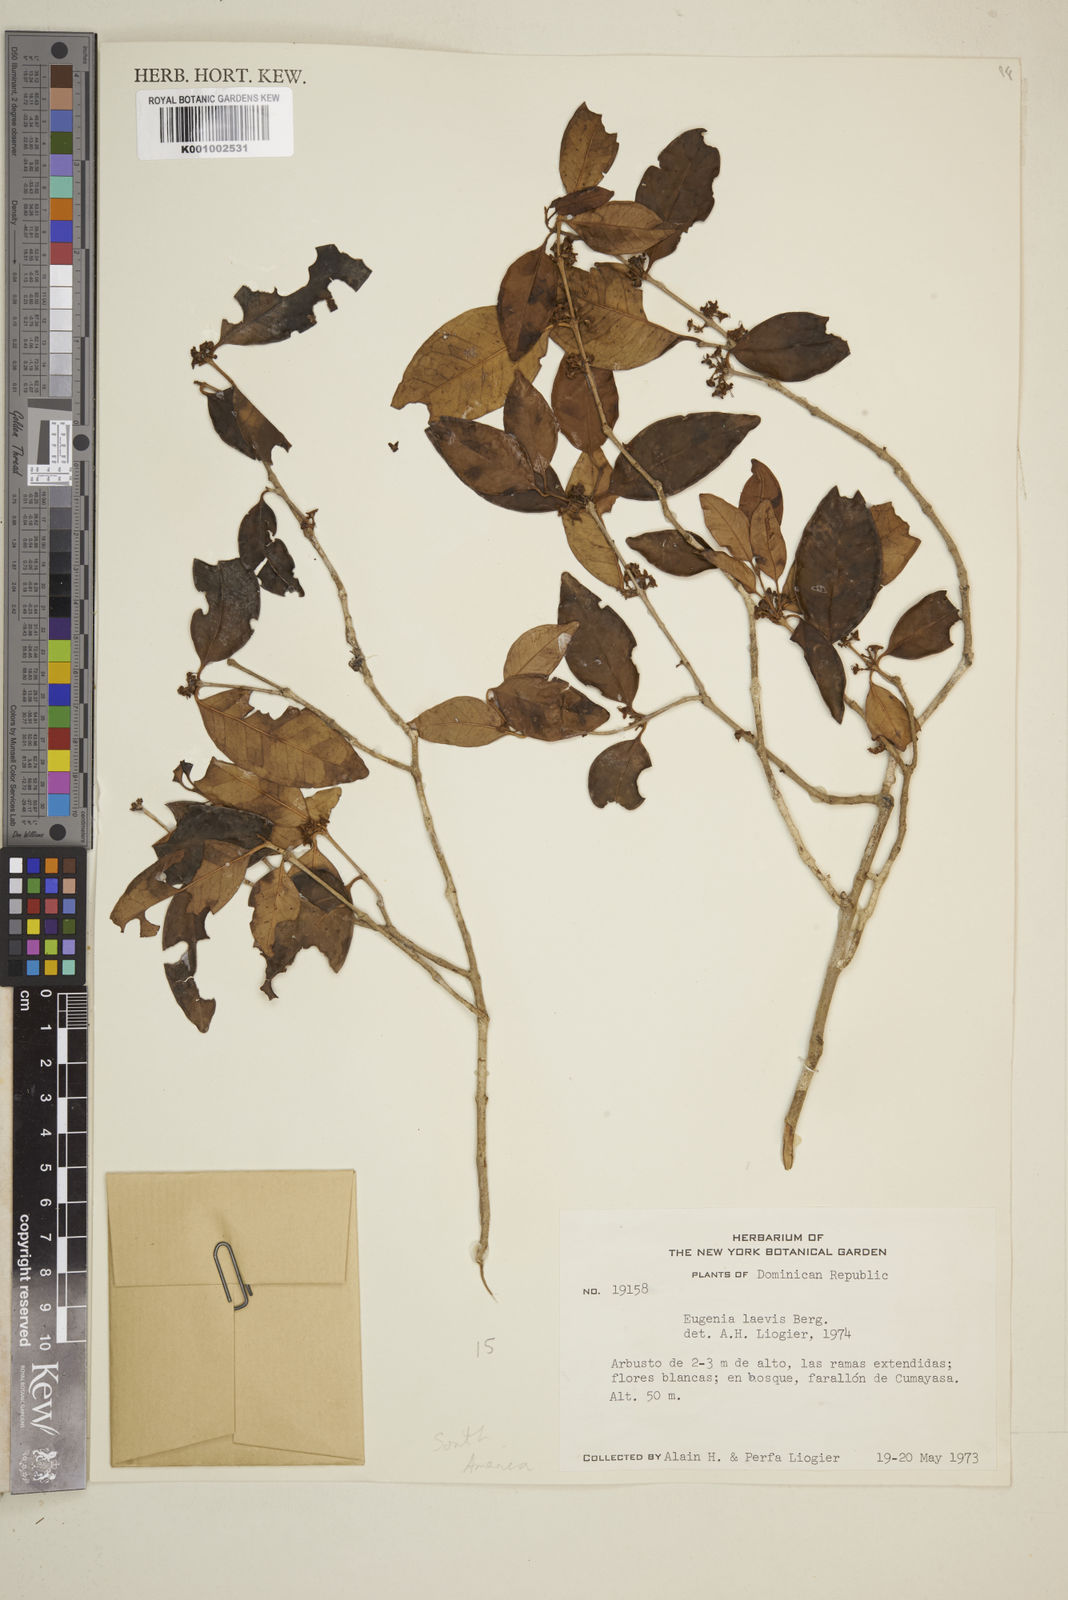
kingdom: Plantae
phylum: Tracheophyta
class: Magnoliopsida
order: Myrtales
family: Myrtaceae
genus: Eugenia
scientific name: Eugenia laevis
